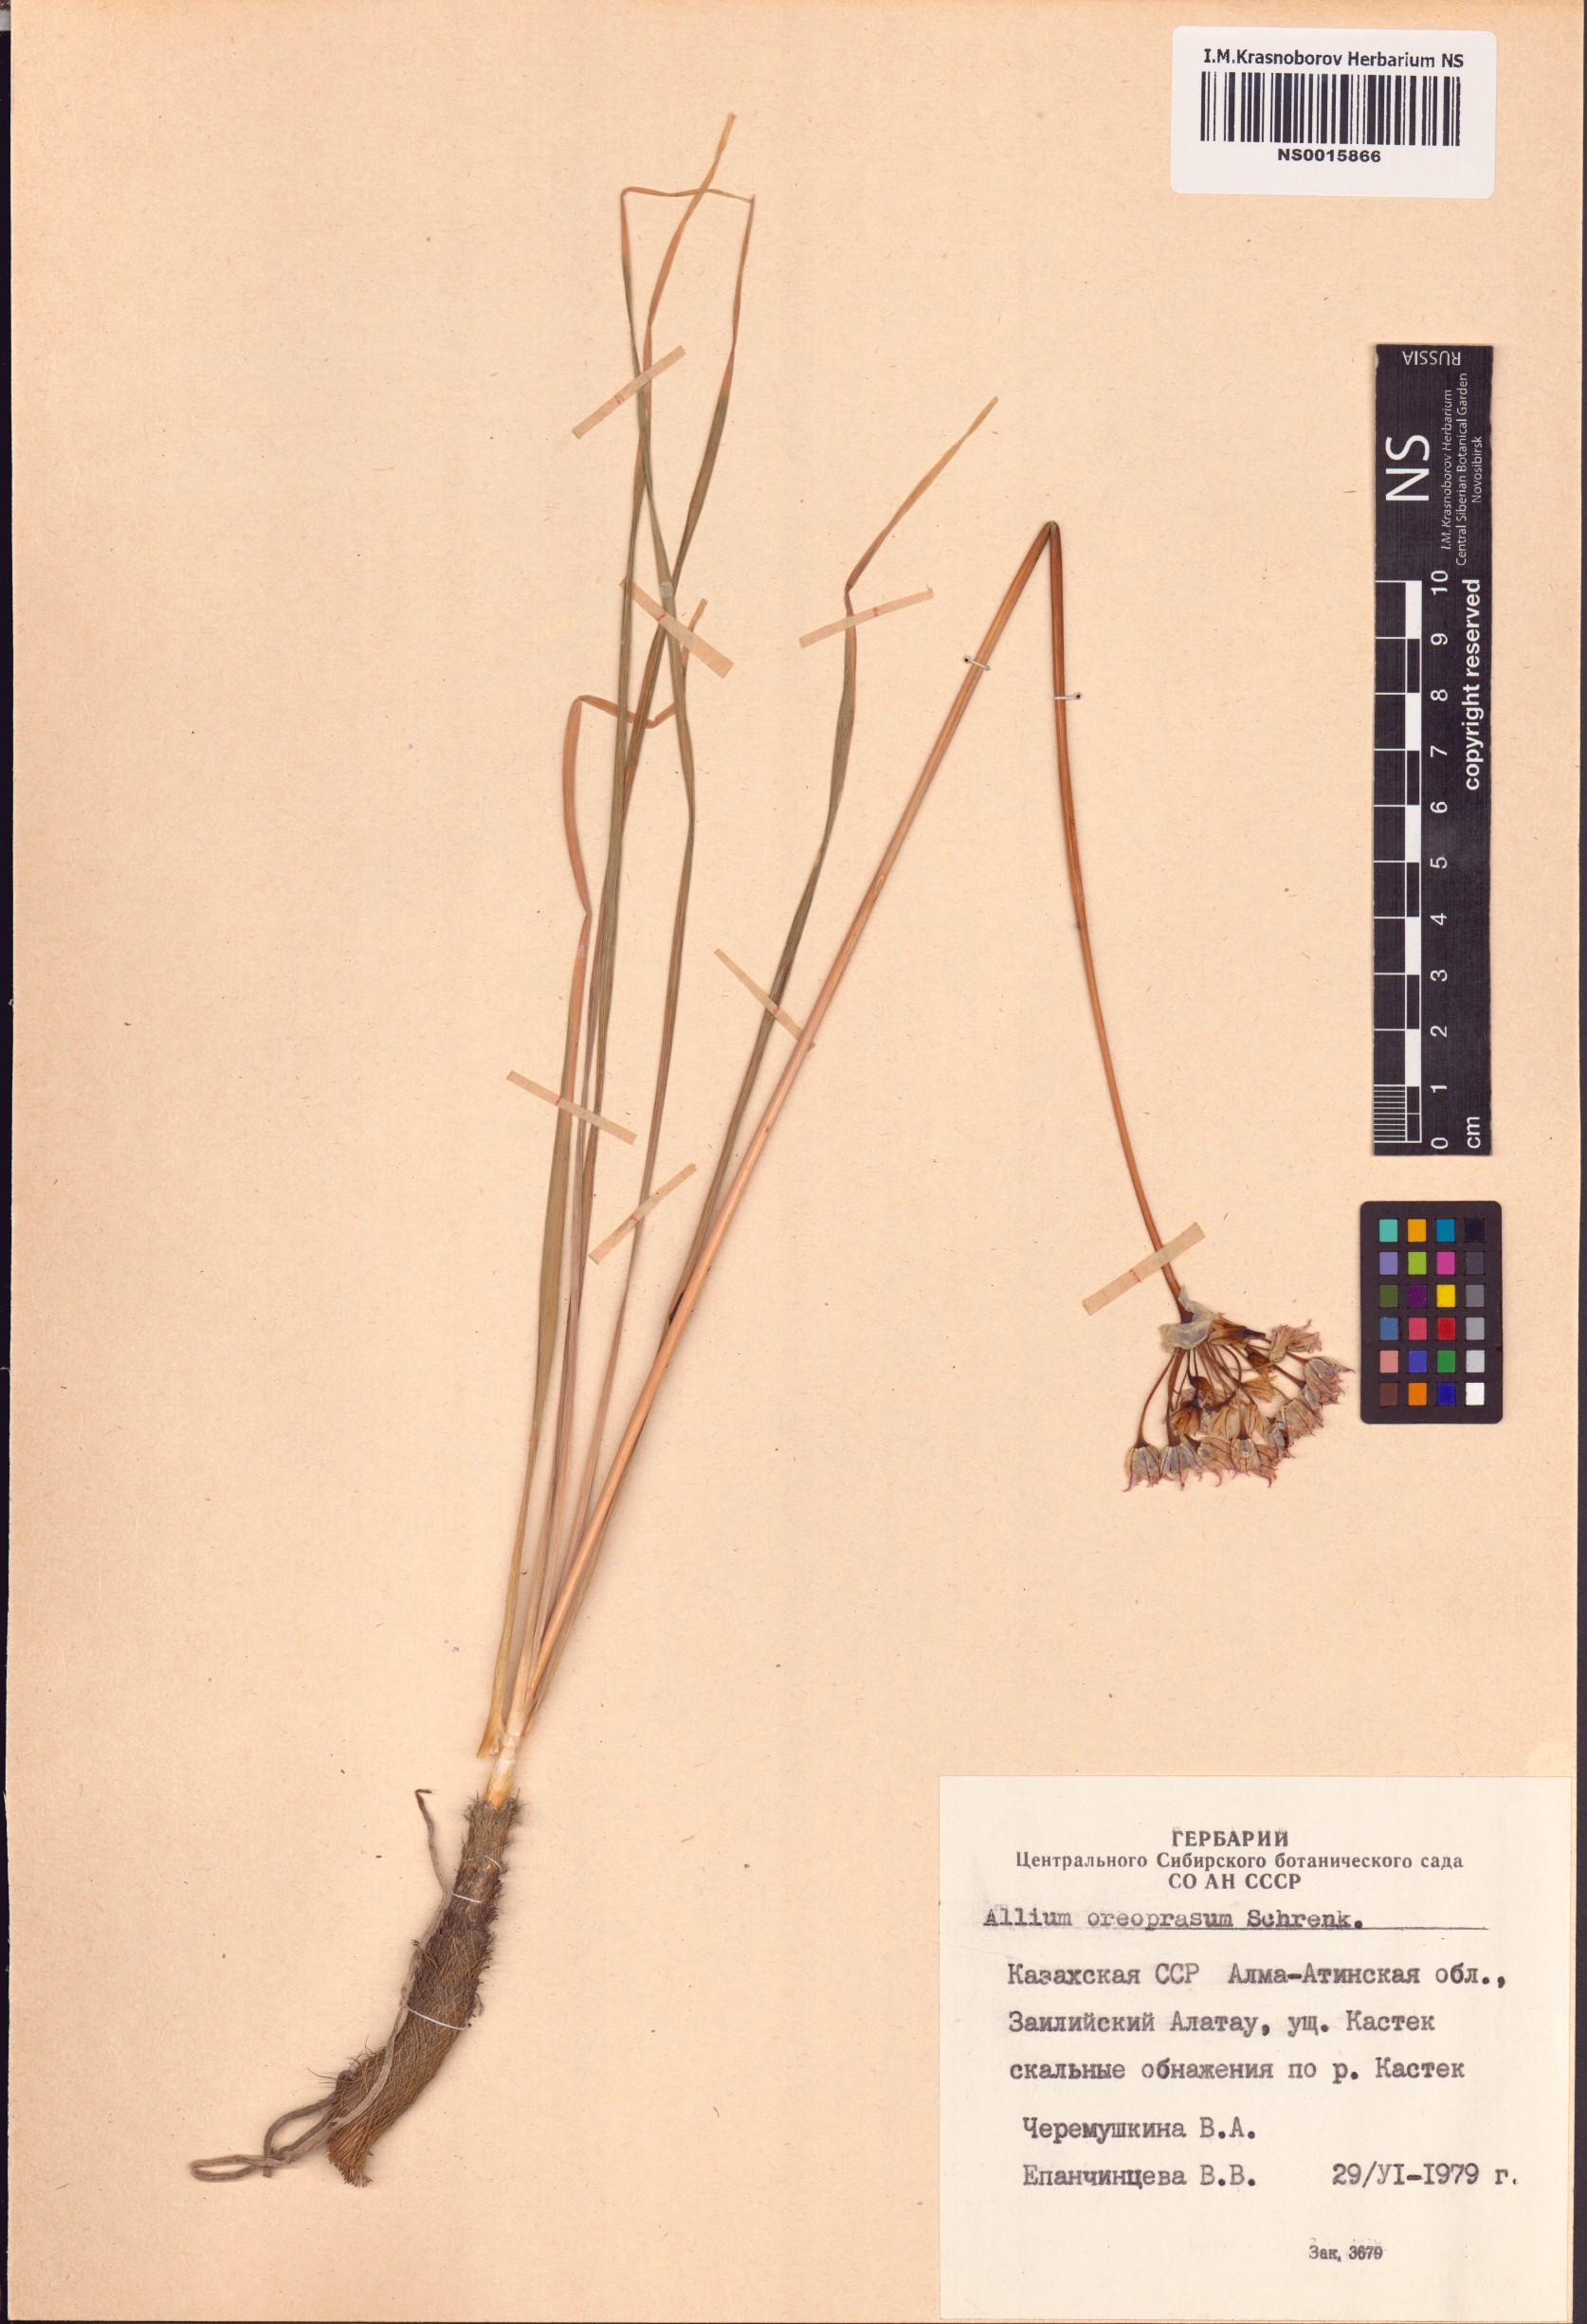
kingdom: Plantae
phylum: Tracheophyta
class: Liliopsida
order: Asparagales
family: Amaryllidaceae
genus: Allium
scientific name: Allium oreoprasum
